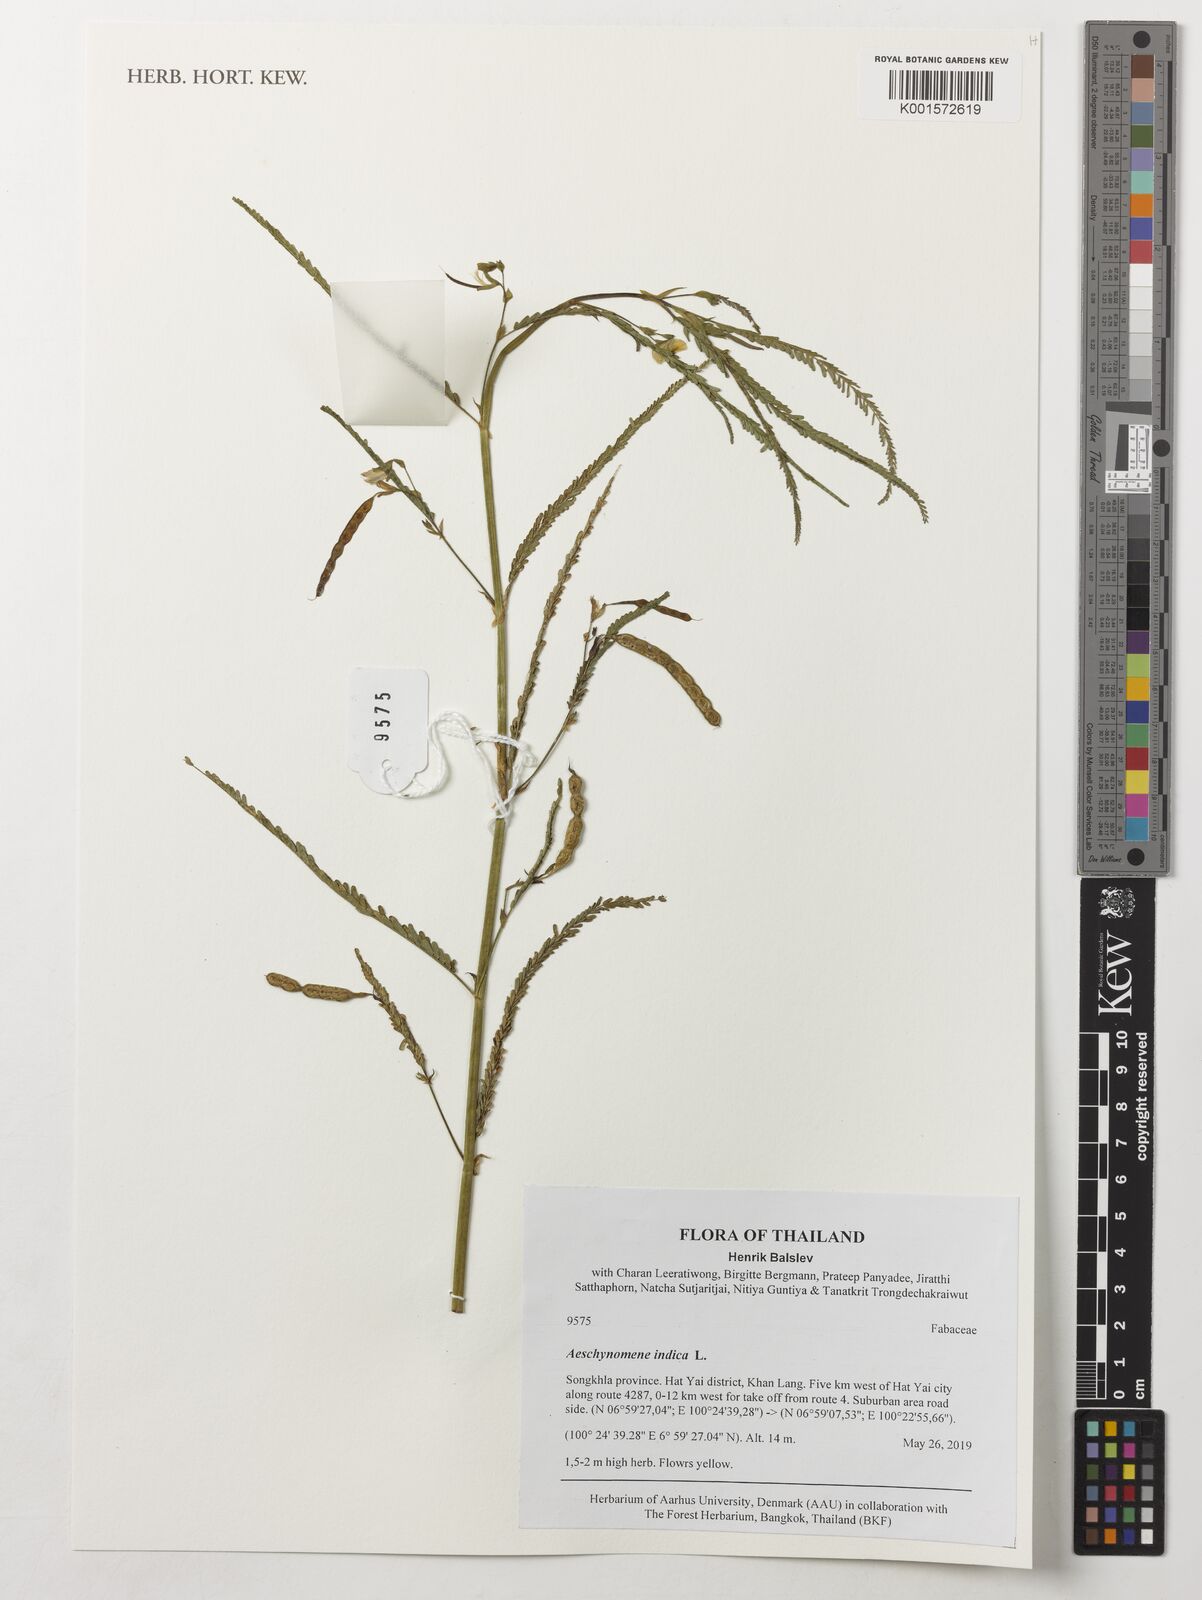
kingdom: Plantae
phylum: Tracheophyta
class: Magnoliopsida
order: Fabales
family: Fabaceae
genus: Aeschynomene
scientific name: Aeschynomene indica
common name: Indian jointvetch
